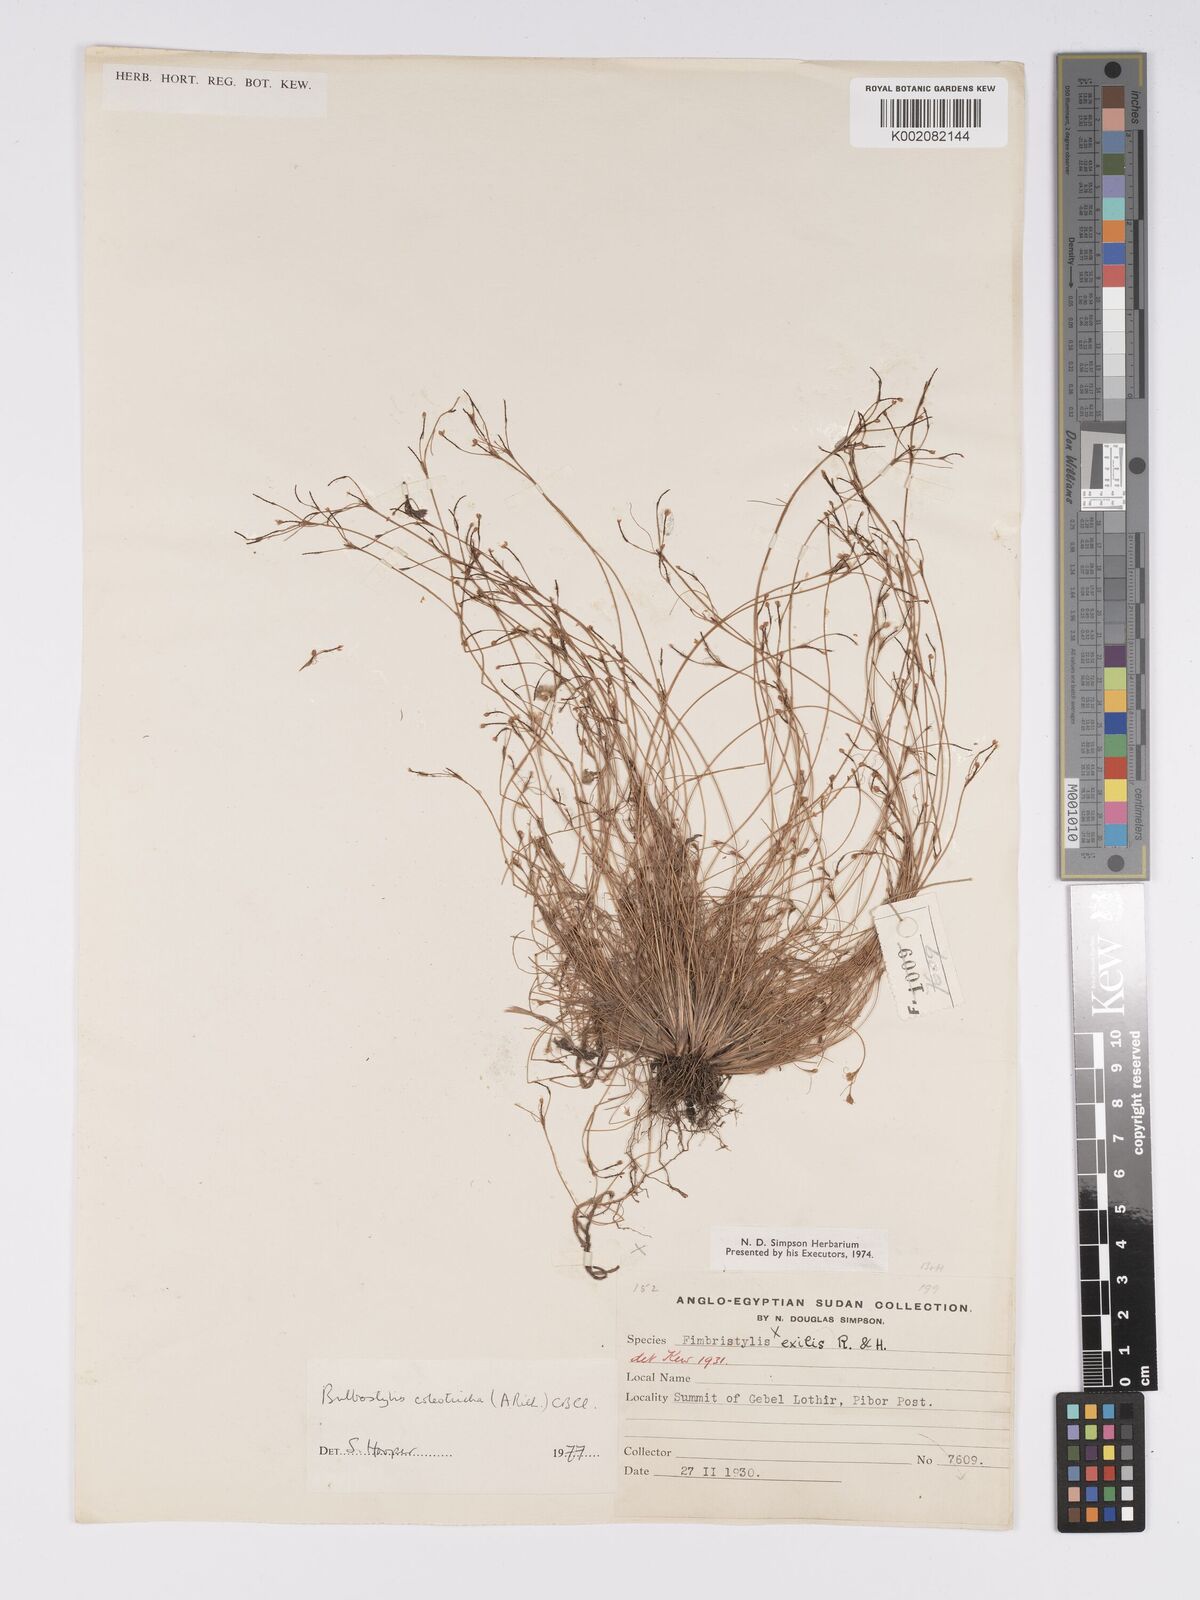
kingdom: Plantae
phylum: Tracheophyta
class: Liliopsida
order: Poales
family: Cyperaceae
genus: Bulbostylis
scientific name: Bulbostylis coleotricha
